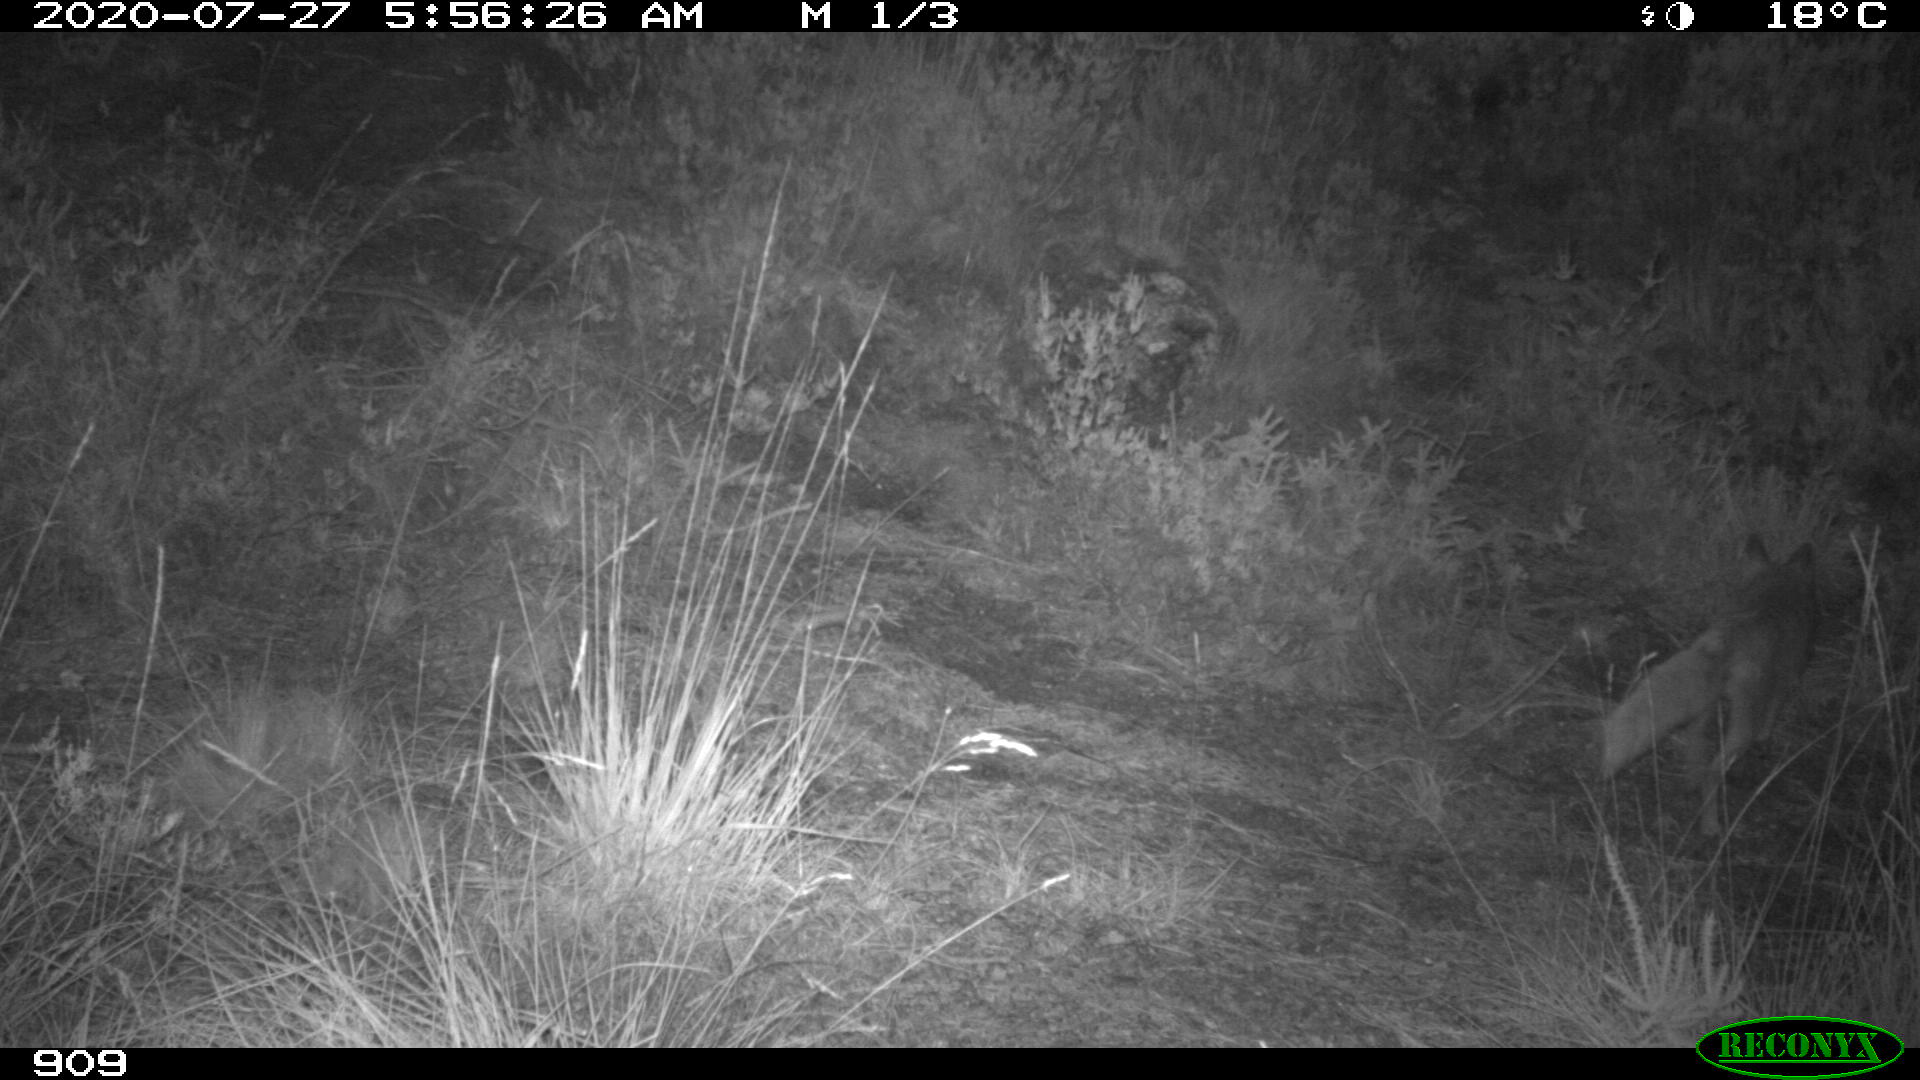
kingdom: Animalia
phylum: Chordata
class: Mammalia
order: Carnivora
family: Canidae
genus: Vulpes
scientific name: Vulpes vulpes
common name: Red fox
